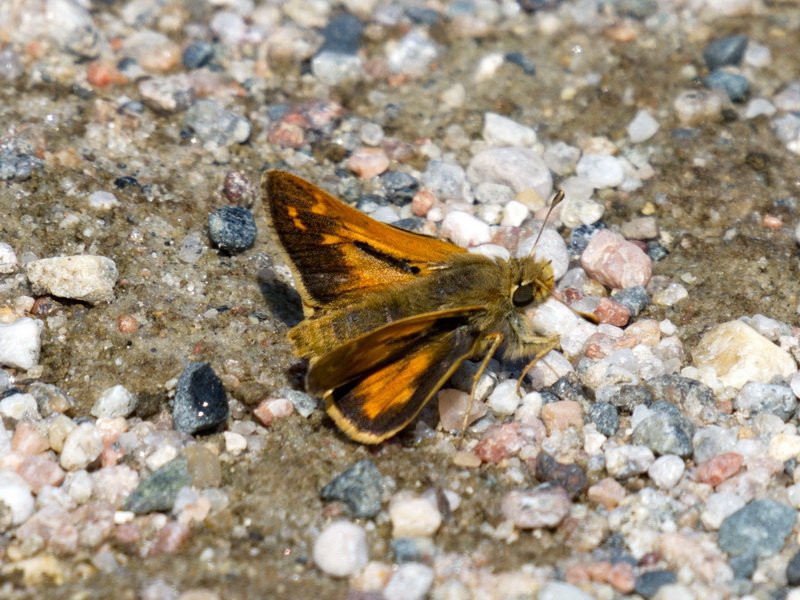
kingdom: Animalia
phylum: Arthropoda
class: Insecta
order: Lepidoptera
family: Hesperiidae
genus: Hesperia
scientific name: Hesperia comma
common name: Common Branded Skipper
